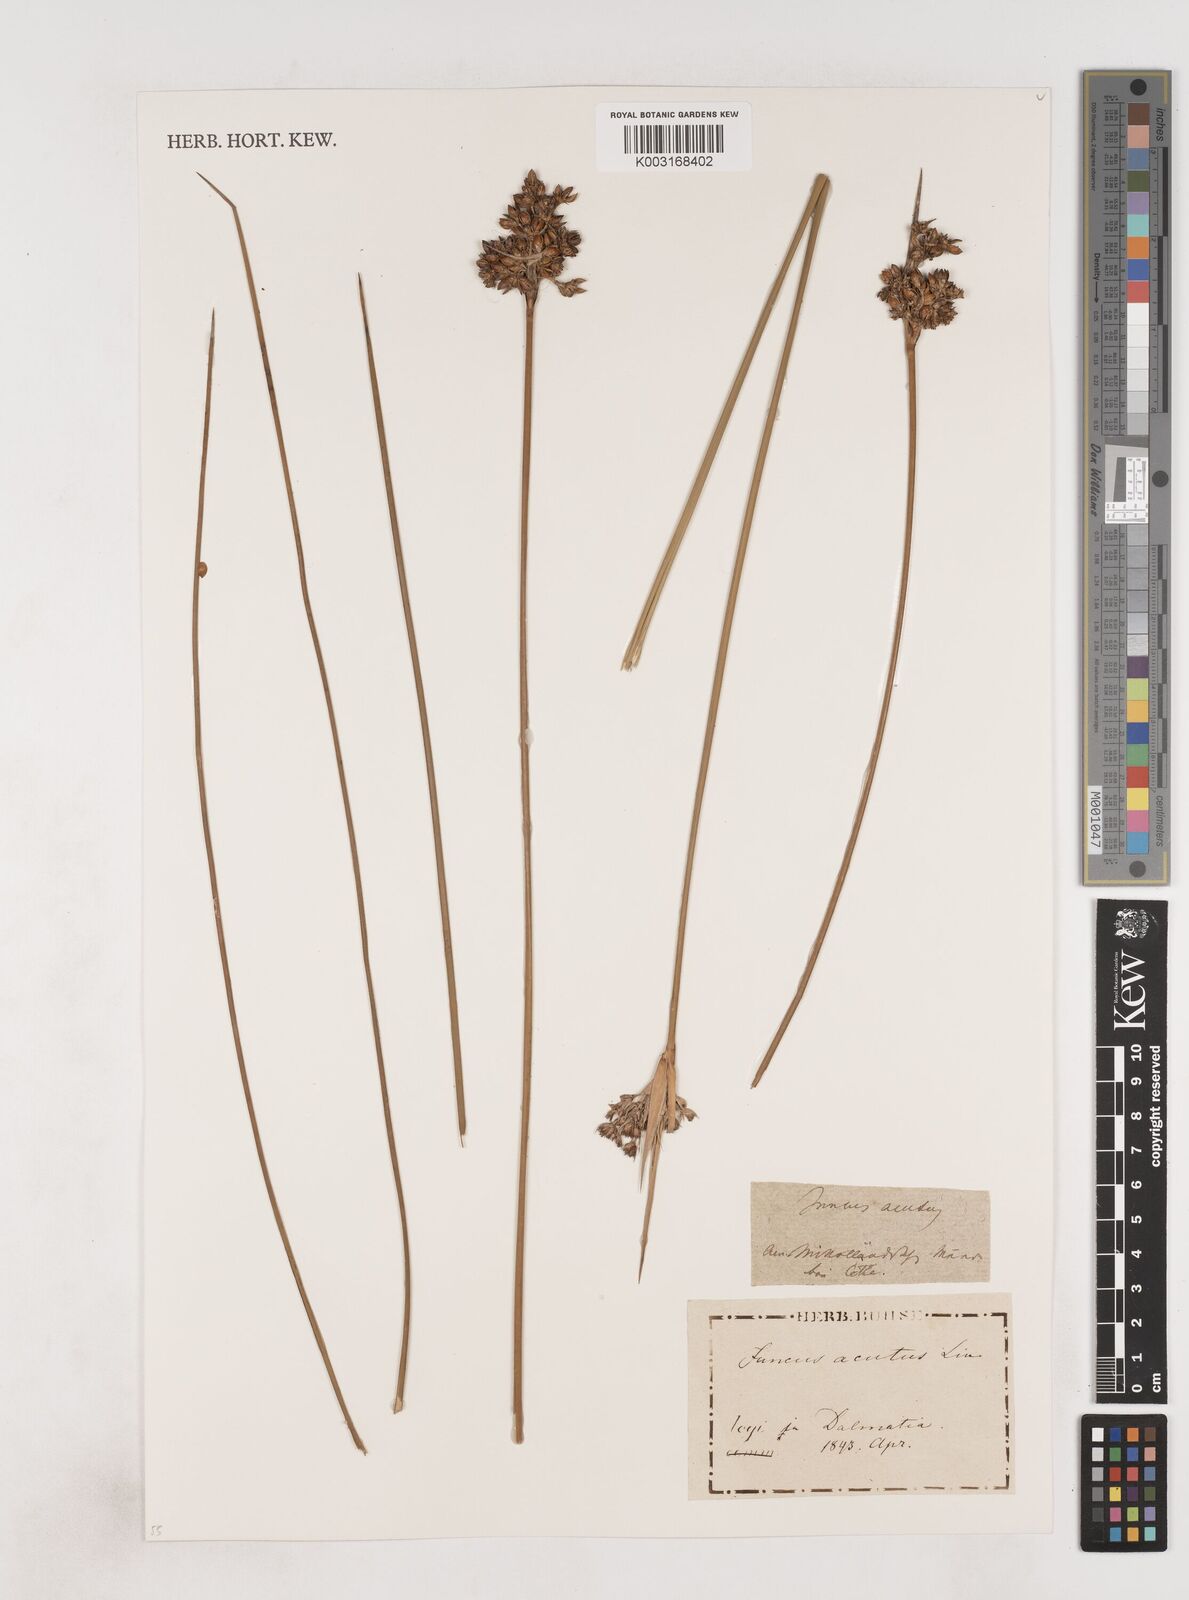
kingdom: Plantae
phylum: Tracheophyta
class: Liliopsida
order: Poales
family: Juncaceae
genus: Juncus
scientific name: Juncus acutus
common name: Sharp rush
